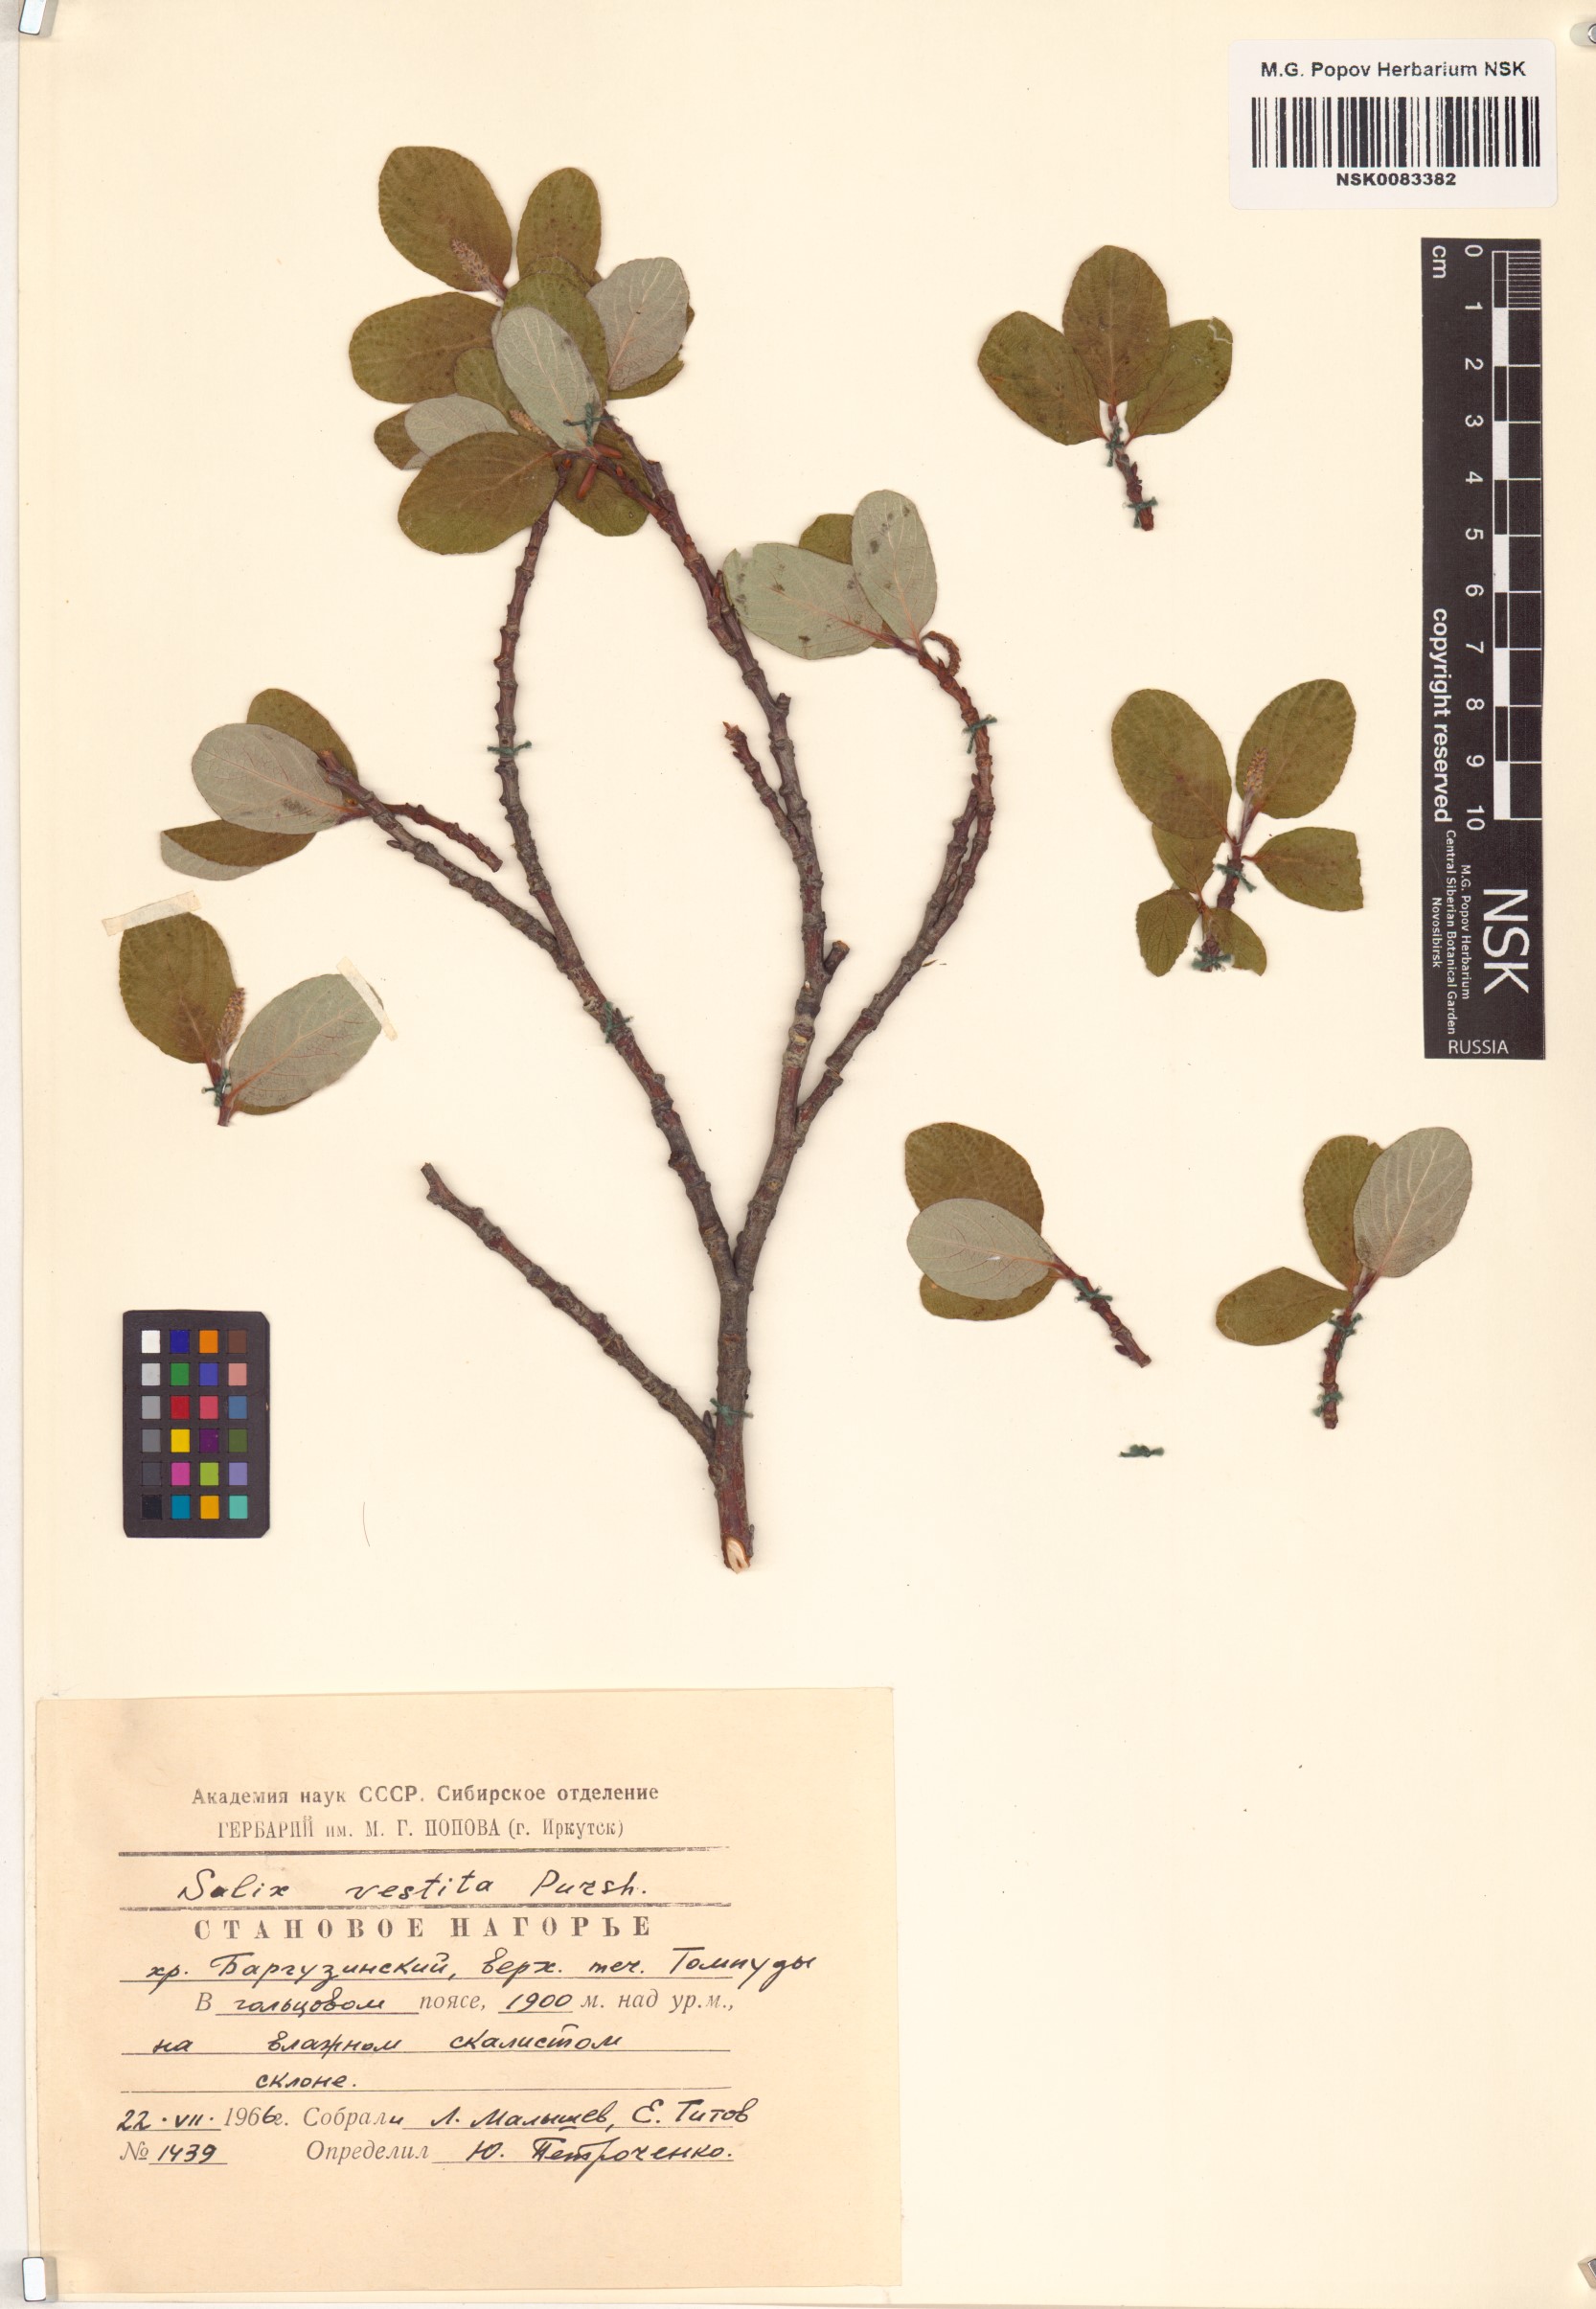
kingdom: Plantae
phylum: Tracheophyta
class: Magnoliopsida
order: Malpighiales
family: Salicaceae
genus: Salix
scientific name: Salix vestita
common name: Hairy willow
